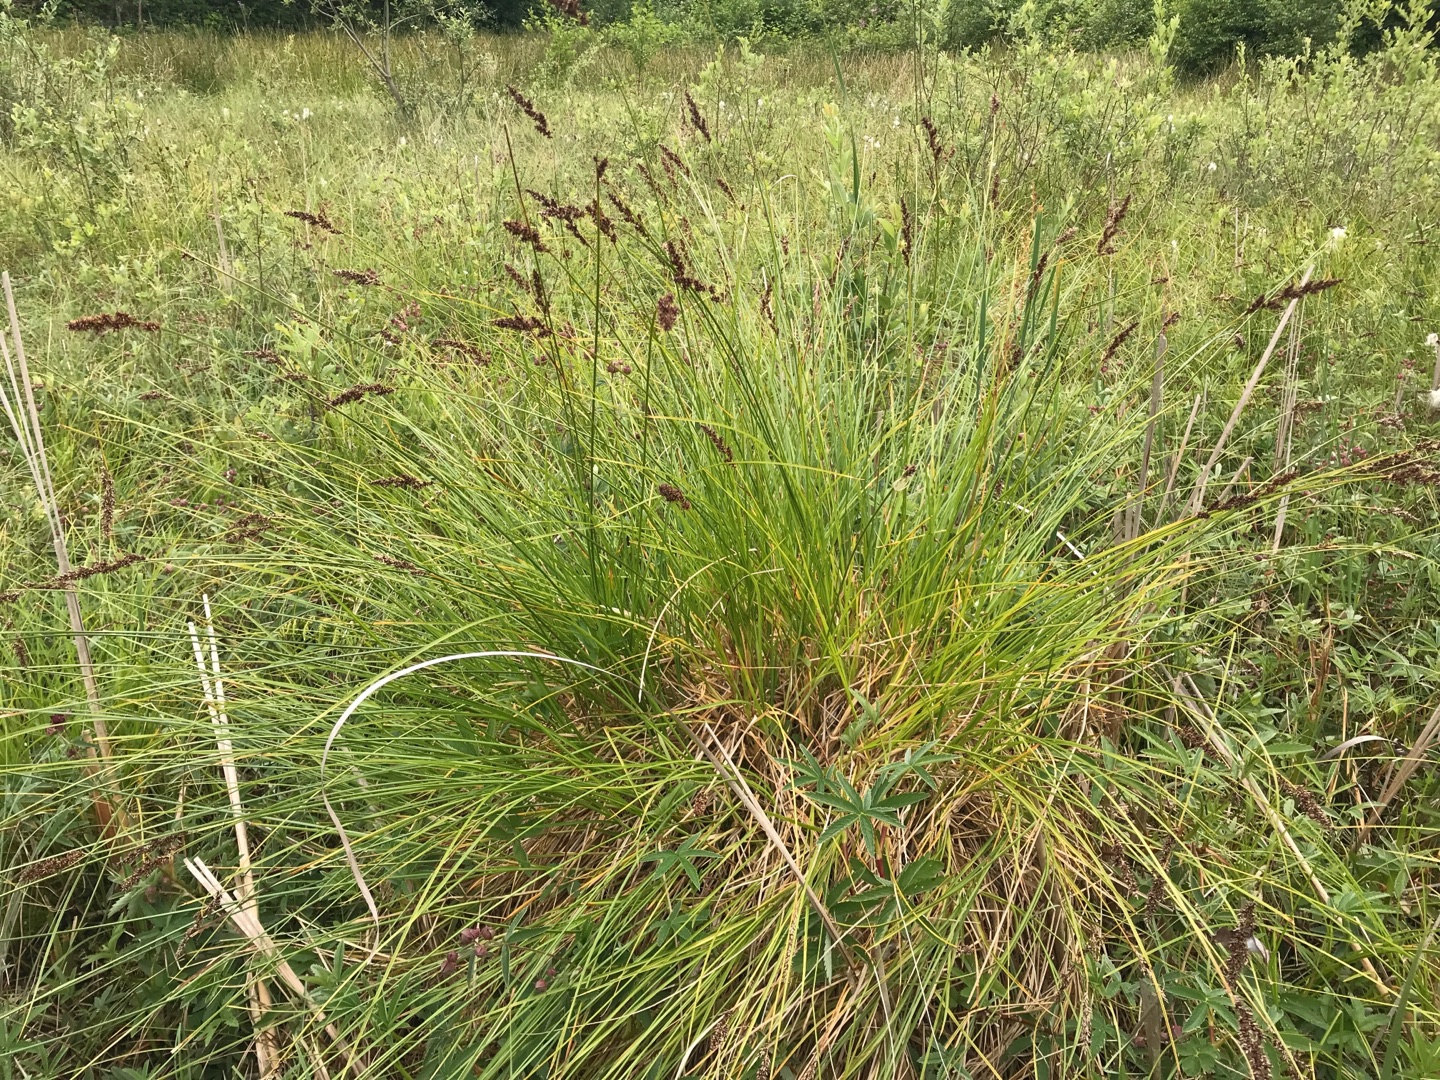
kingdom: Plantae
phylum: Tracheophyta
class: Liliopsida
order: Poales
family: Cyperaceae
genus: Carex
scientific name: Carex paniculata
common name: Top-star
